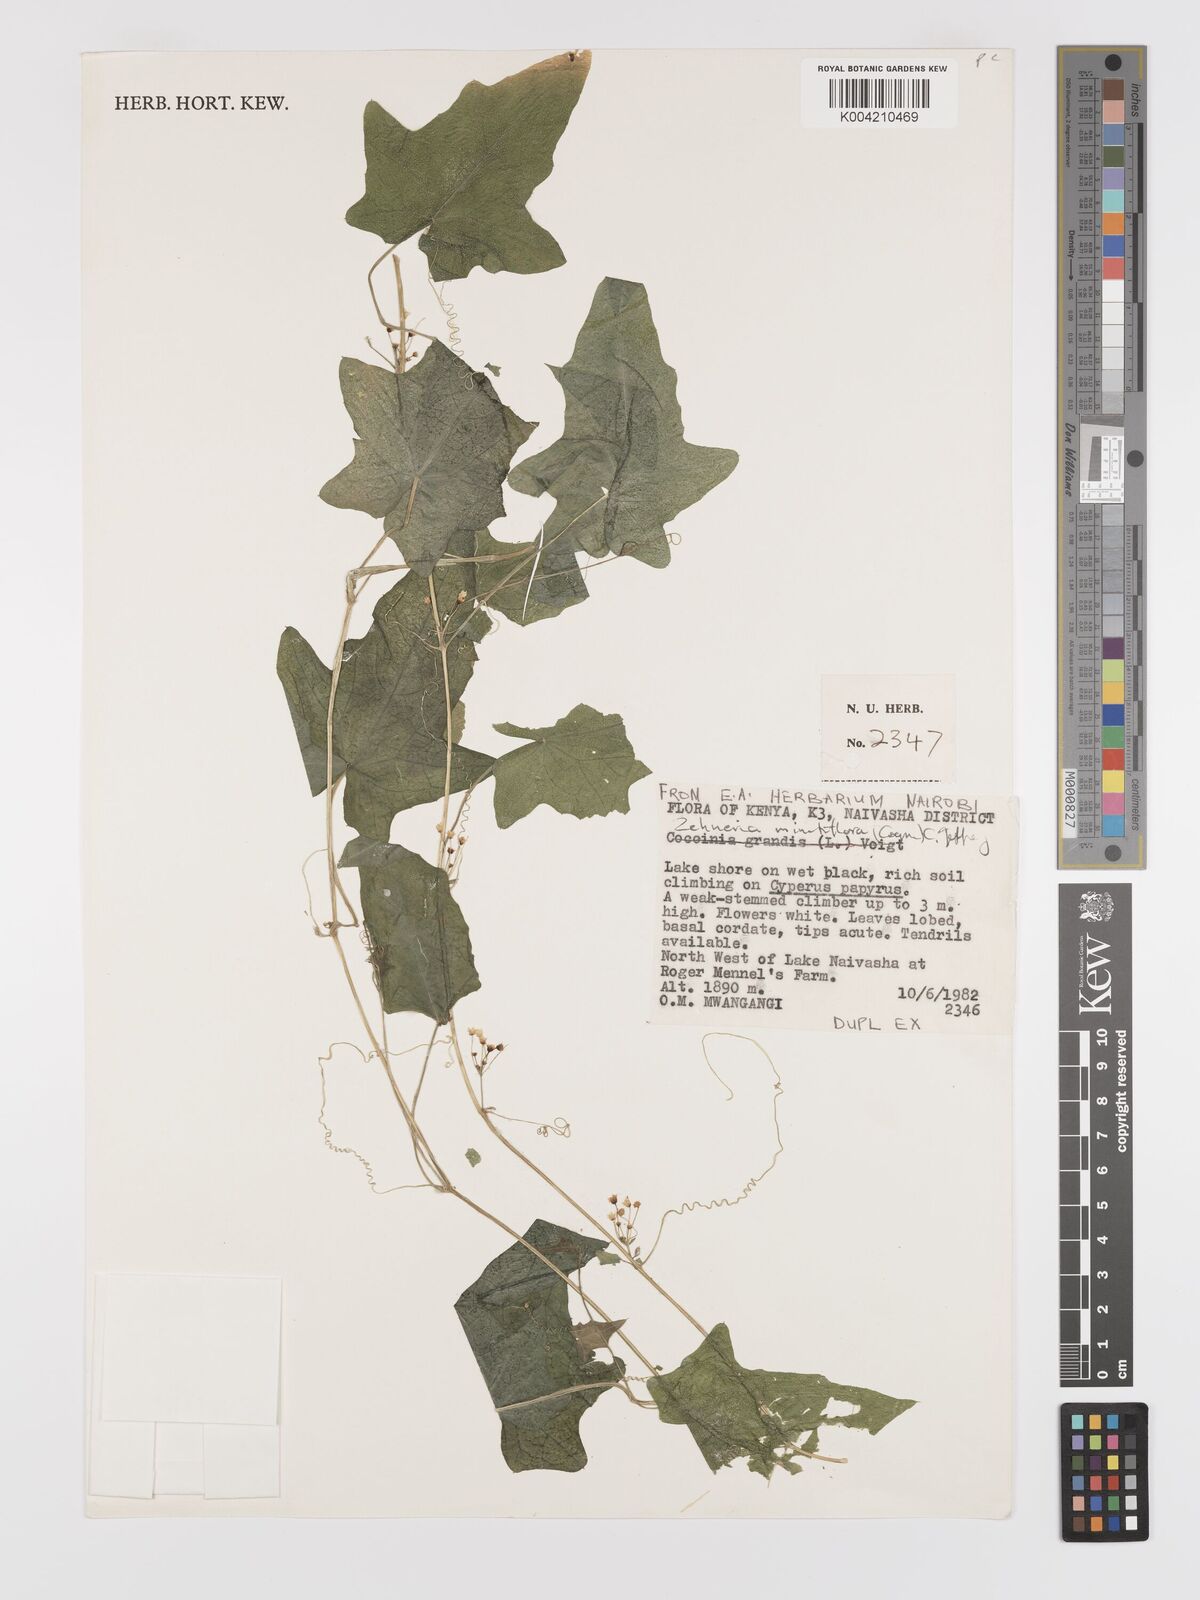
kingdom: Plantae
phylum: Tracheophyta
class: Magnoliopsida
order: Cucurbitales
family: Cucurbitaceae
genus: Zehneria
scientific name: Zehneria minutiflora
